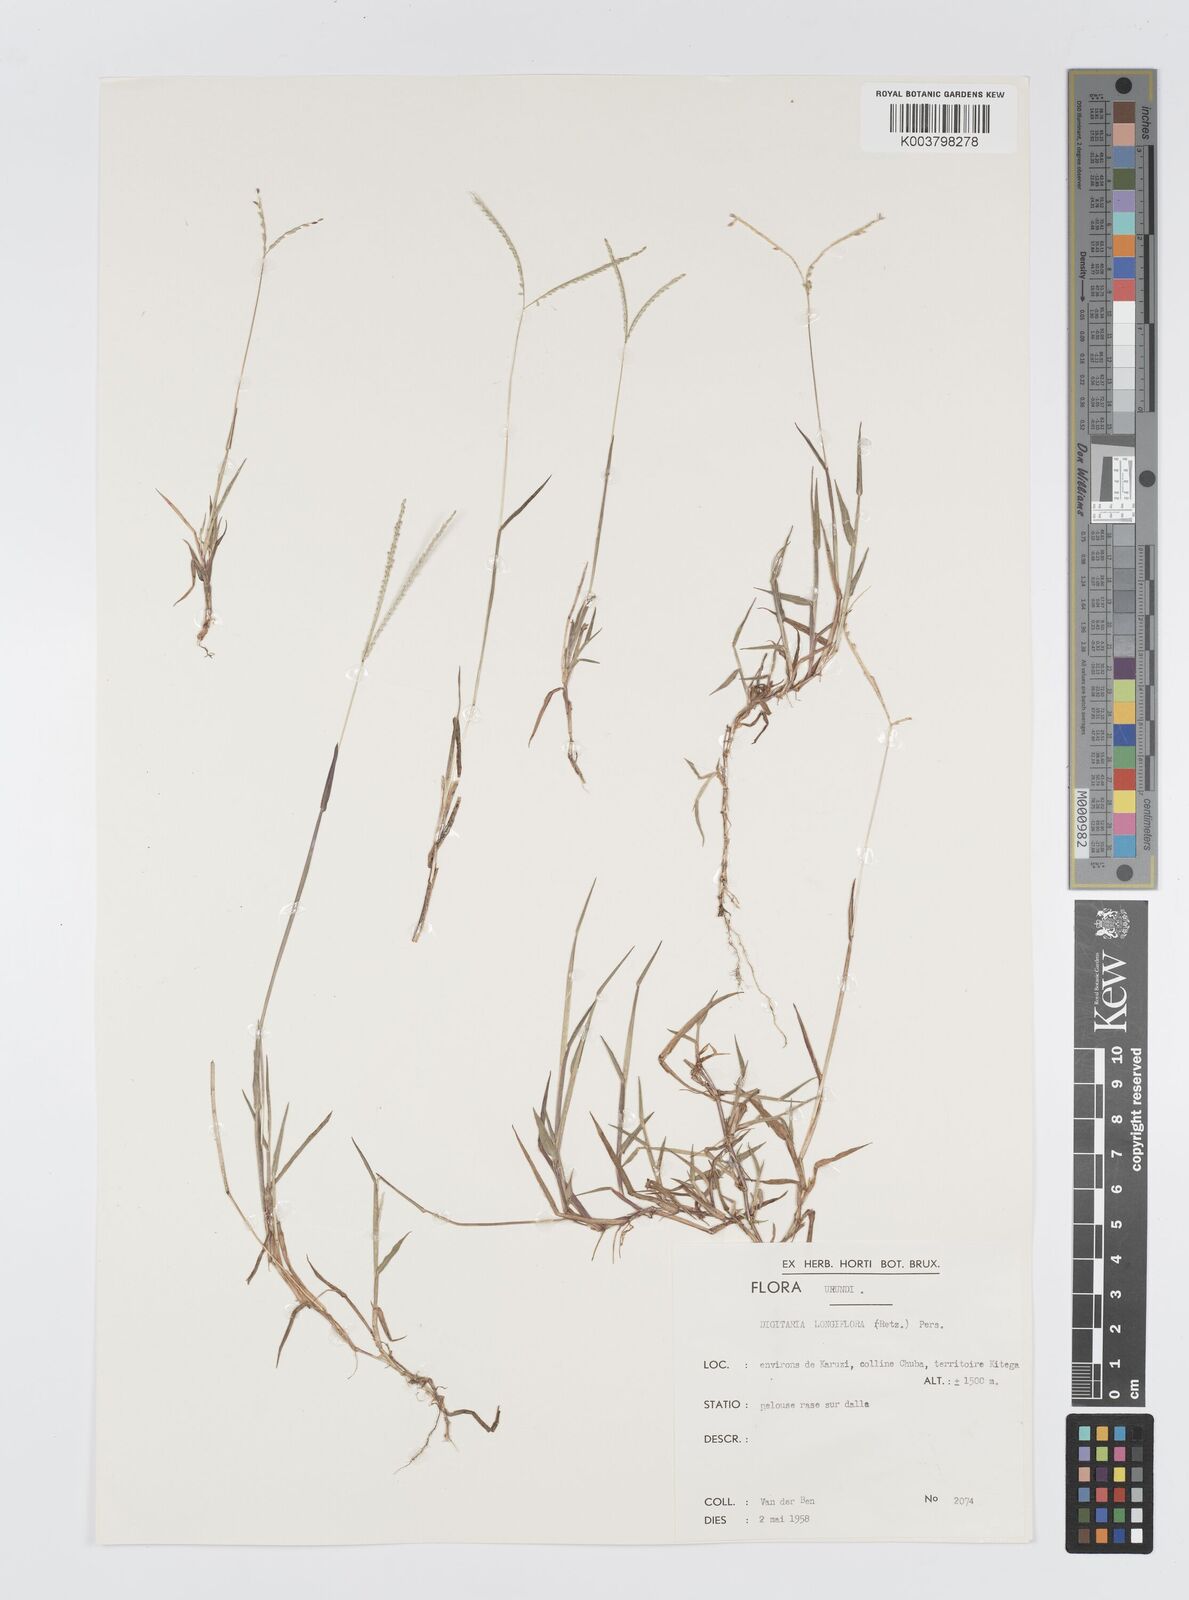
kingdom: Plantae
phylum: Tracheophyta
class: Liliopsida
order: Poales
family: Poaceae
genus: Digitaria
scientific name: Digitaria longiflora
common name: Wire crabgrass
